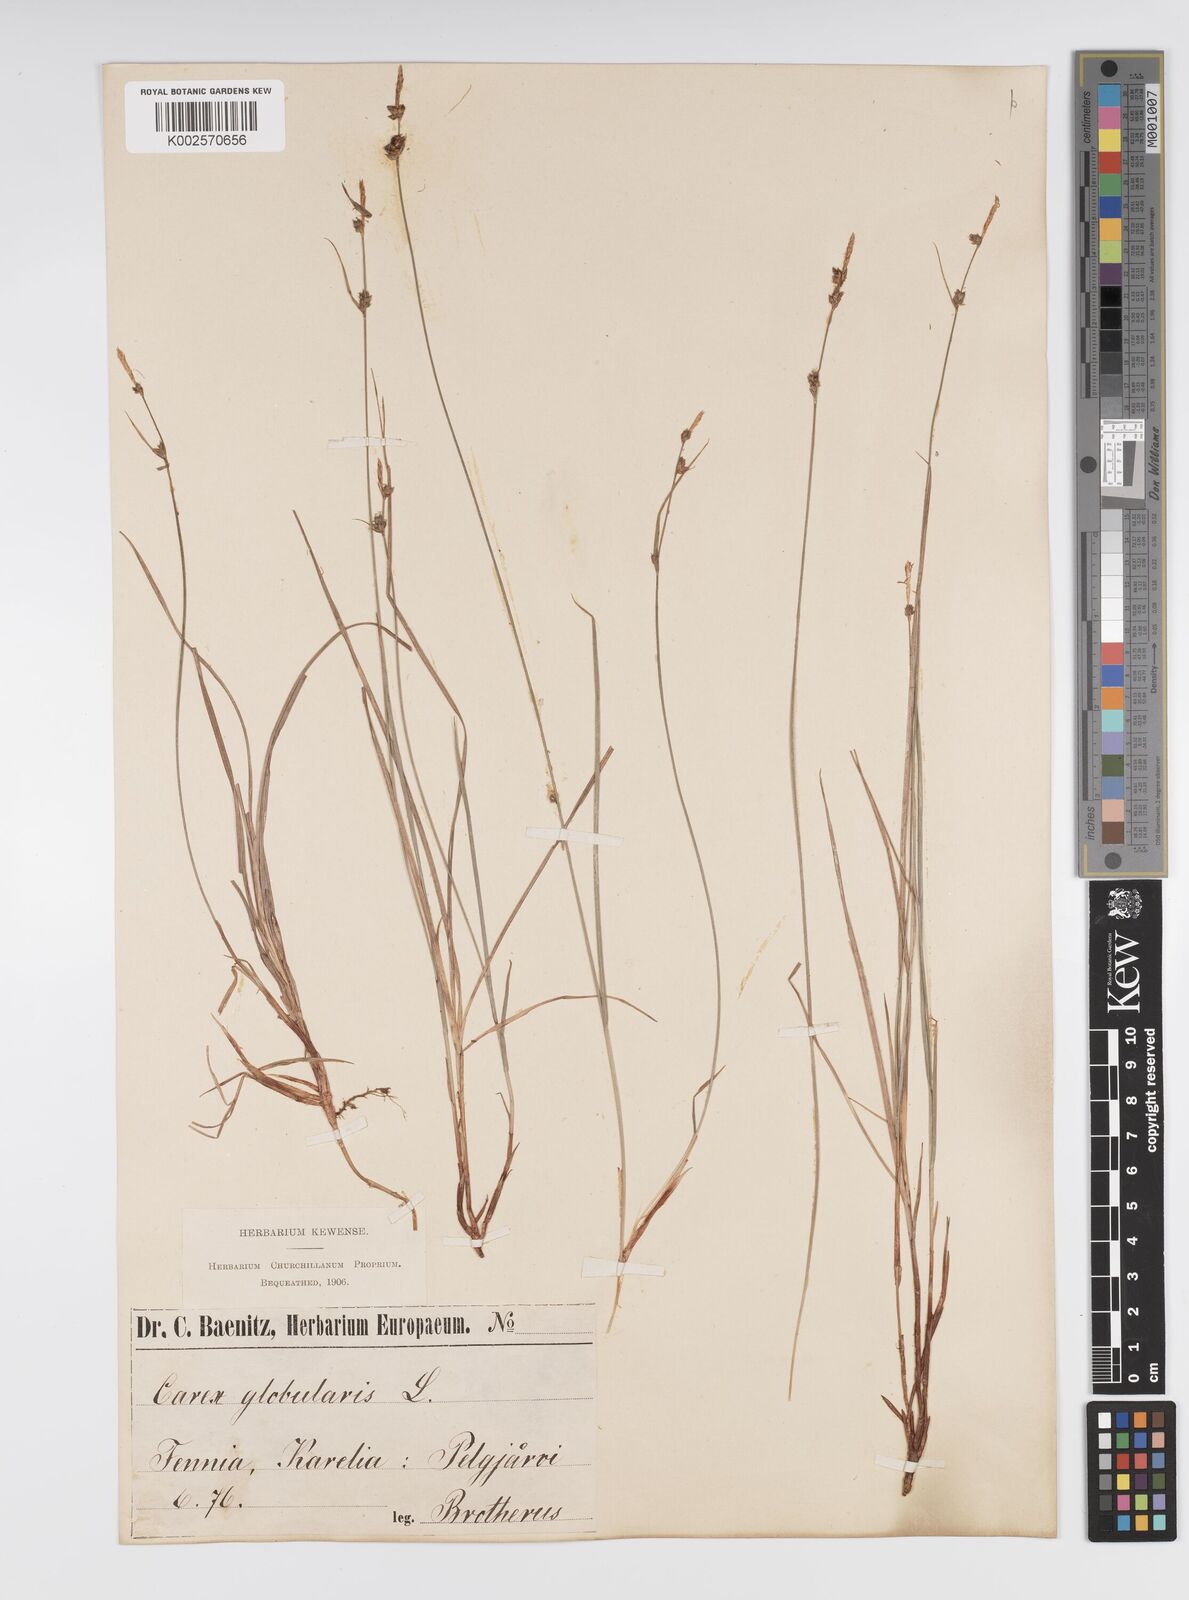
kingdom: Plantae
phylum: Tracheophyta
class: Liliopsida
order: Poales
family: Cyperaceae
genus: Carex
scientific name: Carex globularis
